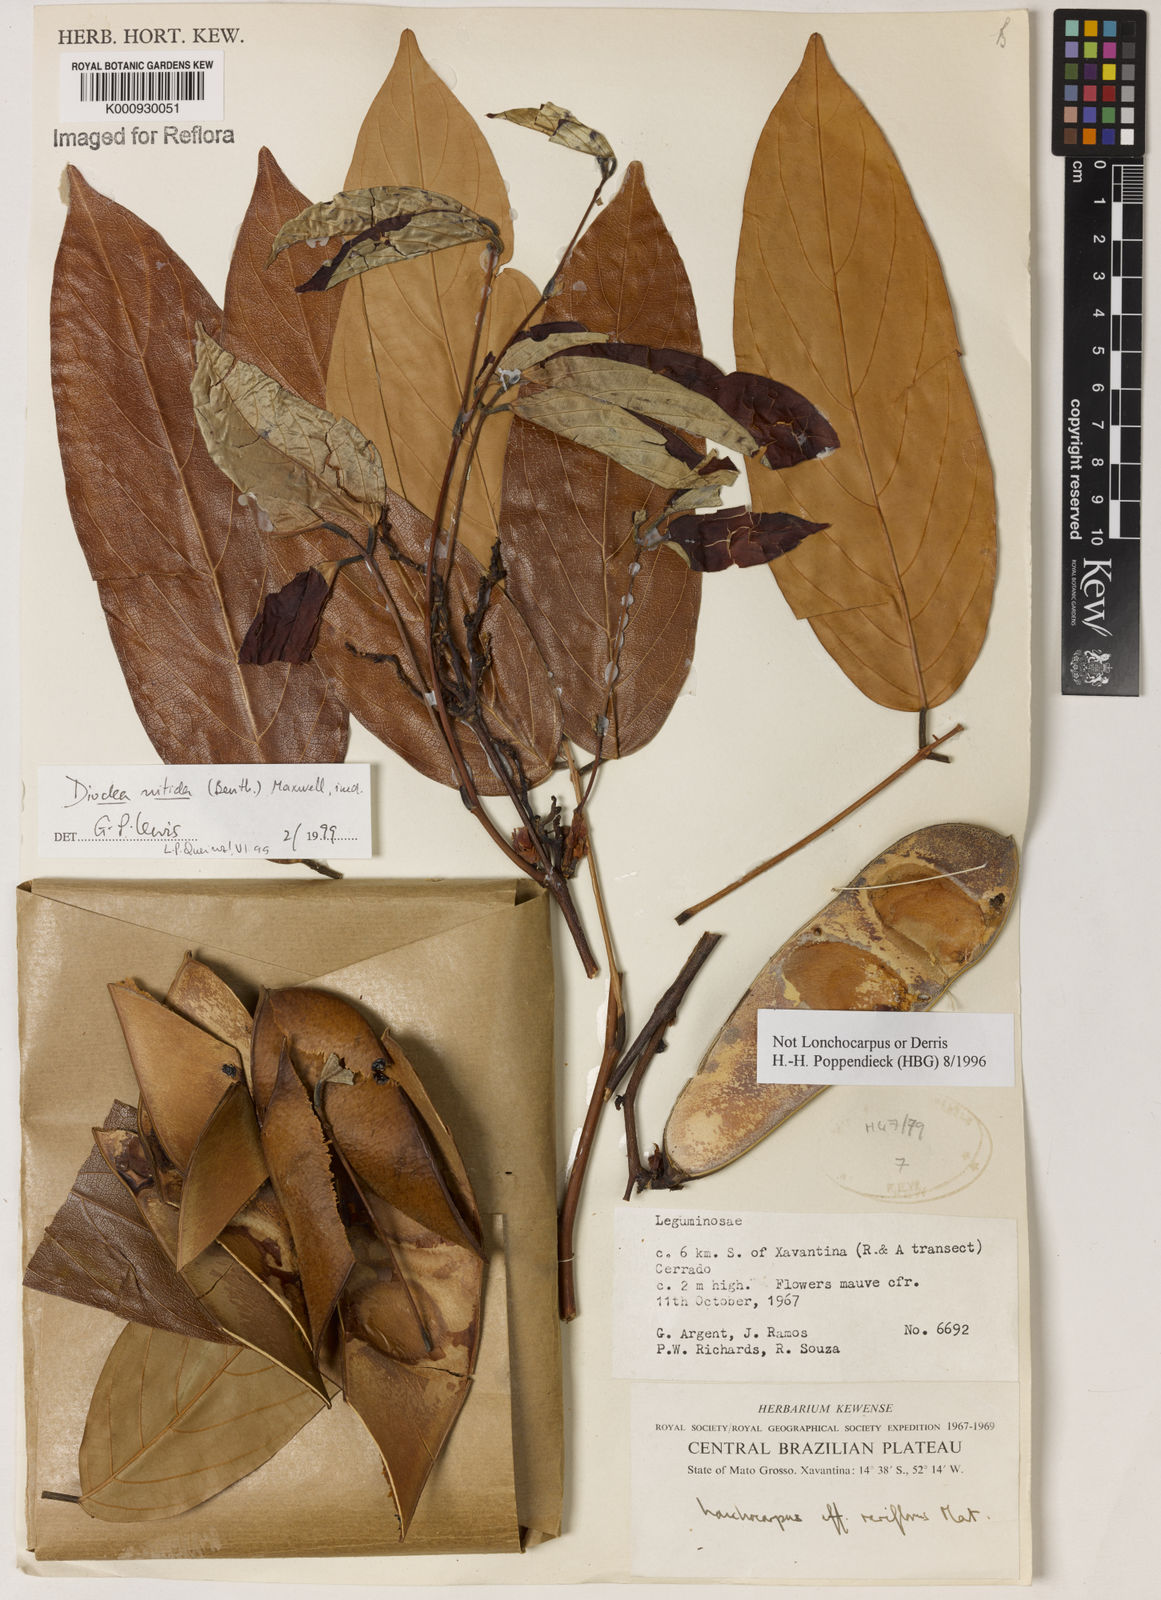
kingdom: Plantae
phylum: Tracheophyta
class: Magnoliopsida
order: Fabales
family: Fabaceae
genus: Dioclea
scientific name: Dioclea
